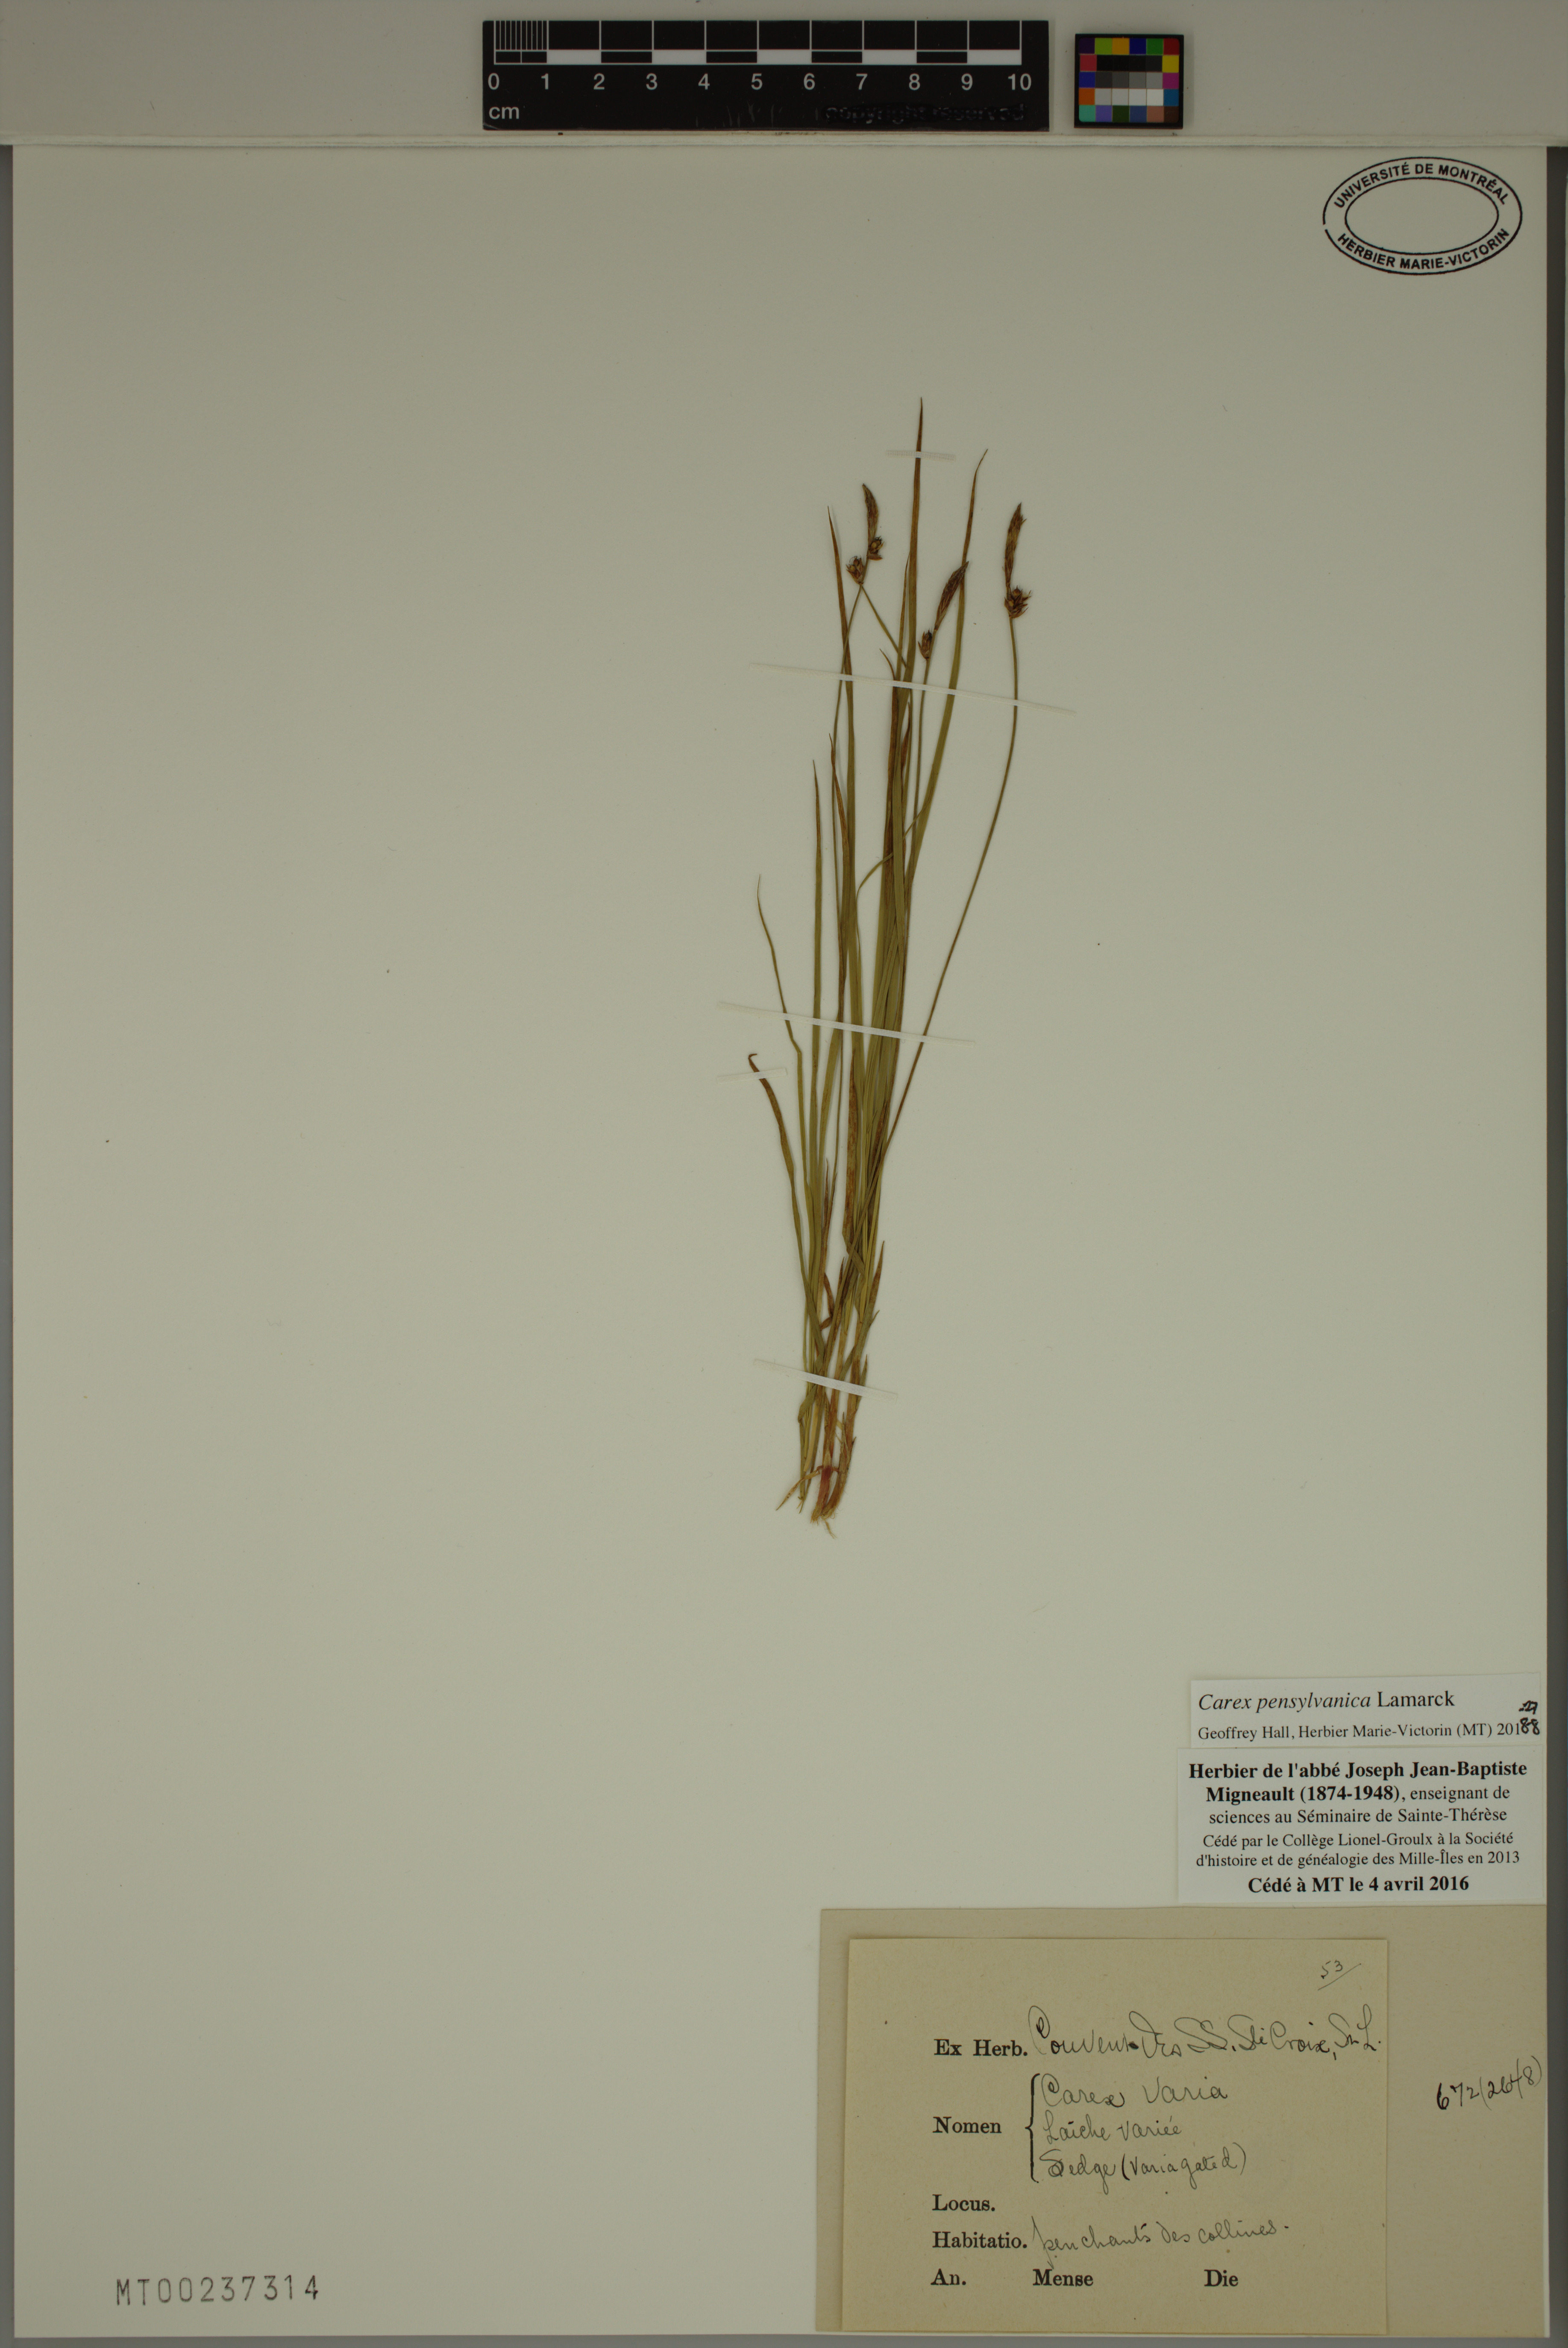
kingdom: Plantae
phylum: Tracheophyta
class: Liliopsida
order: Poales
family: Cyperaceae
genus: Carex
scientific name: Carex pensylvanica
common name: Common oak sedge
